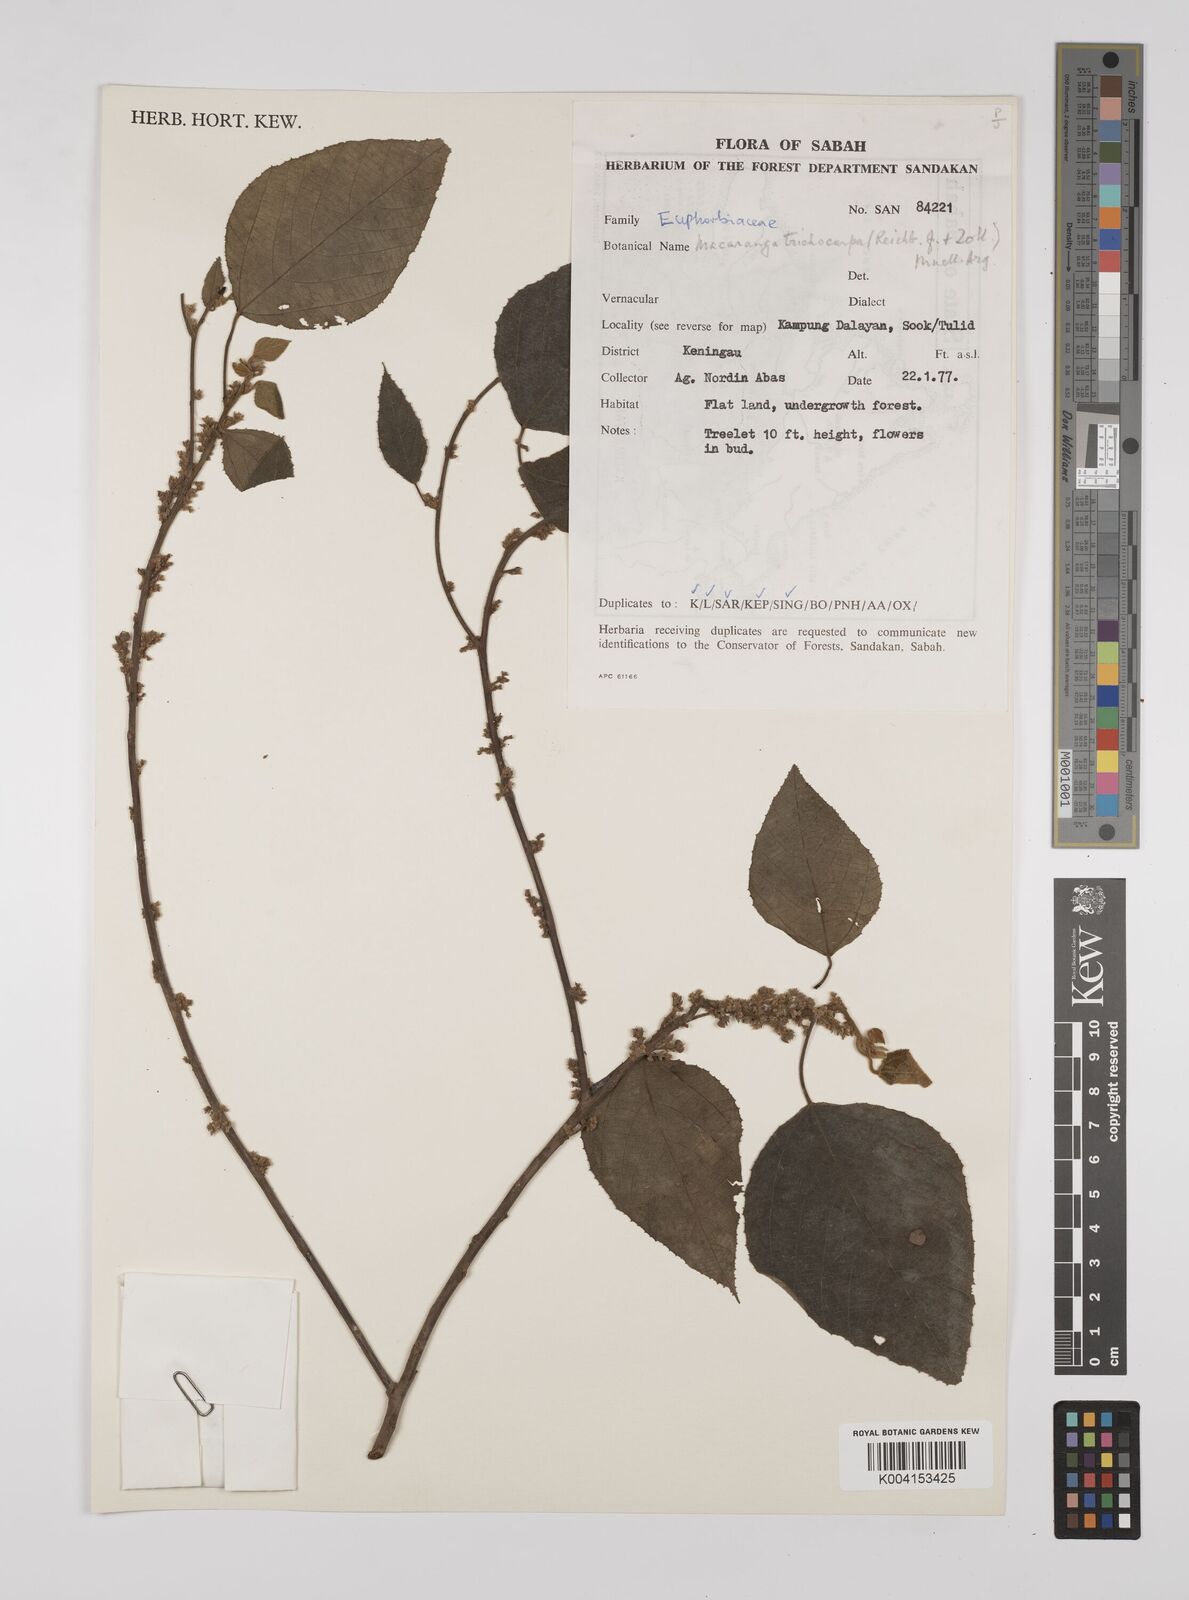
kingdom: Plantae
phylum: Tracheophyta
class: Magnoliopsida
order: Malpighiales
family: Euphorbiaceae
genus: Macaranga
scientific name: Macaranga trichocarpa
